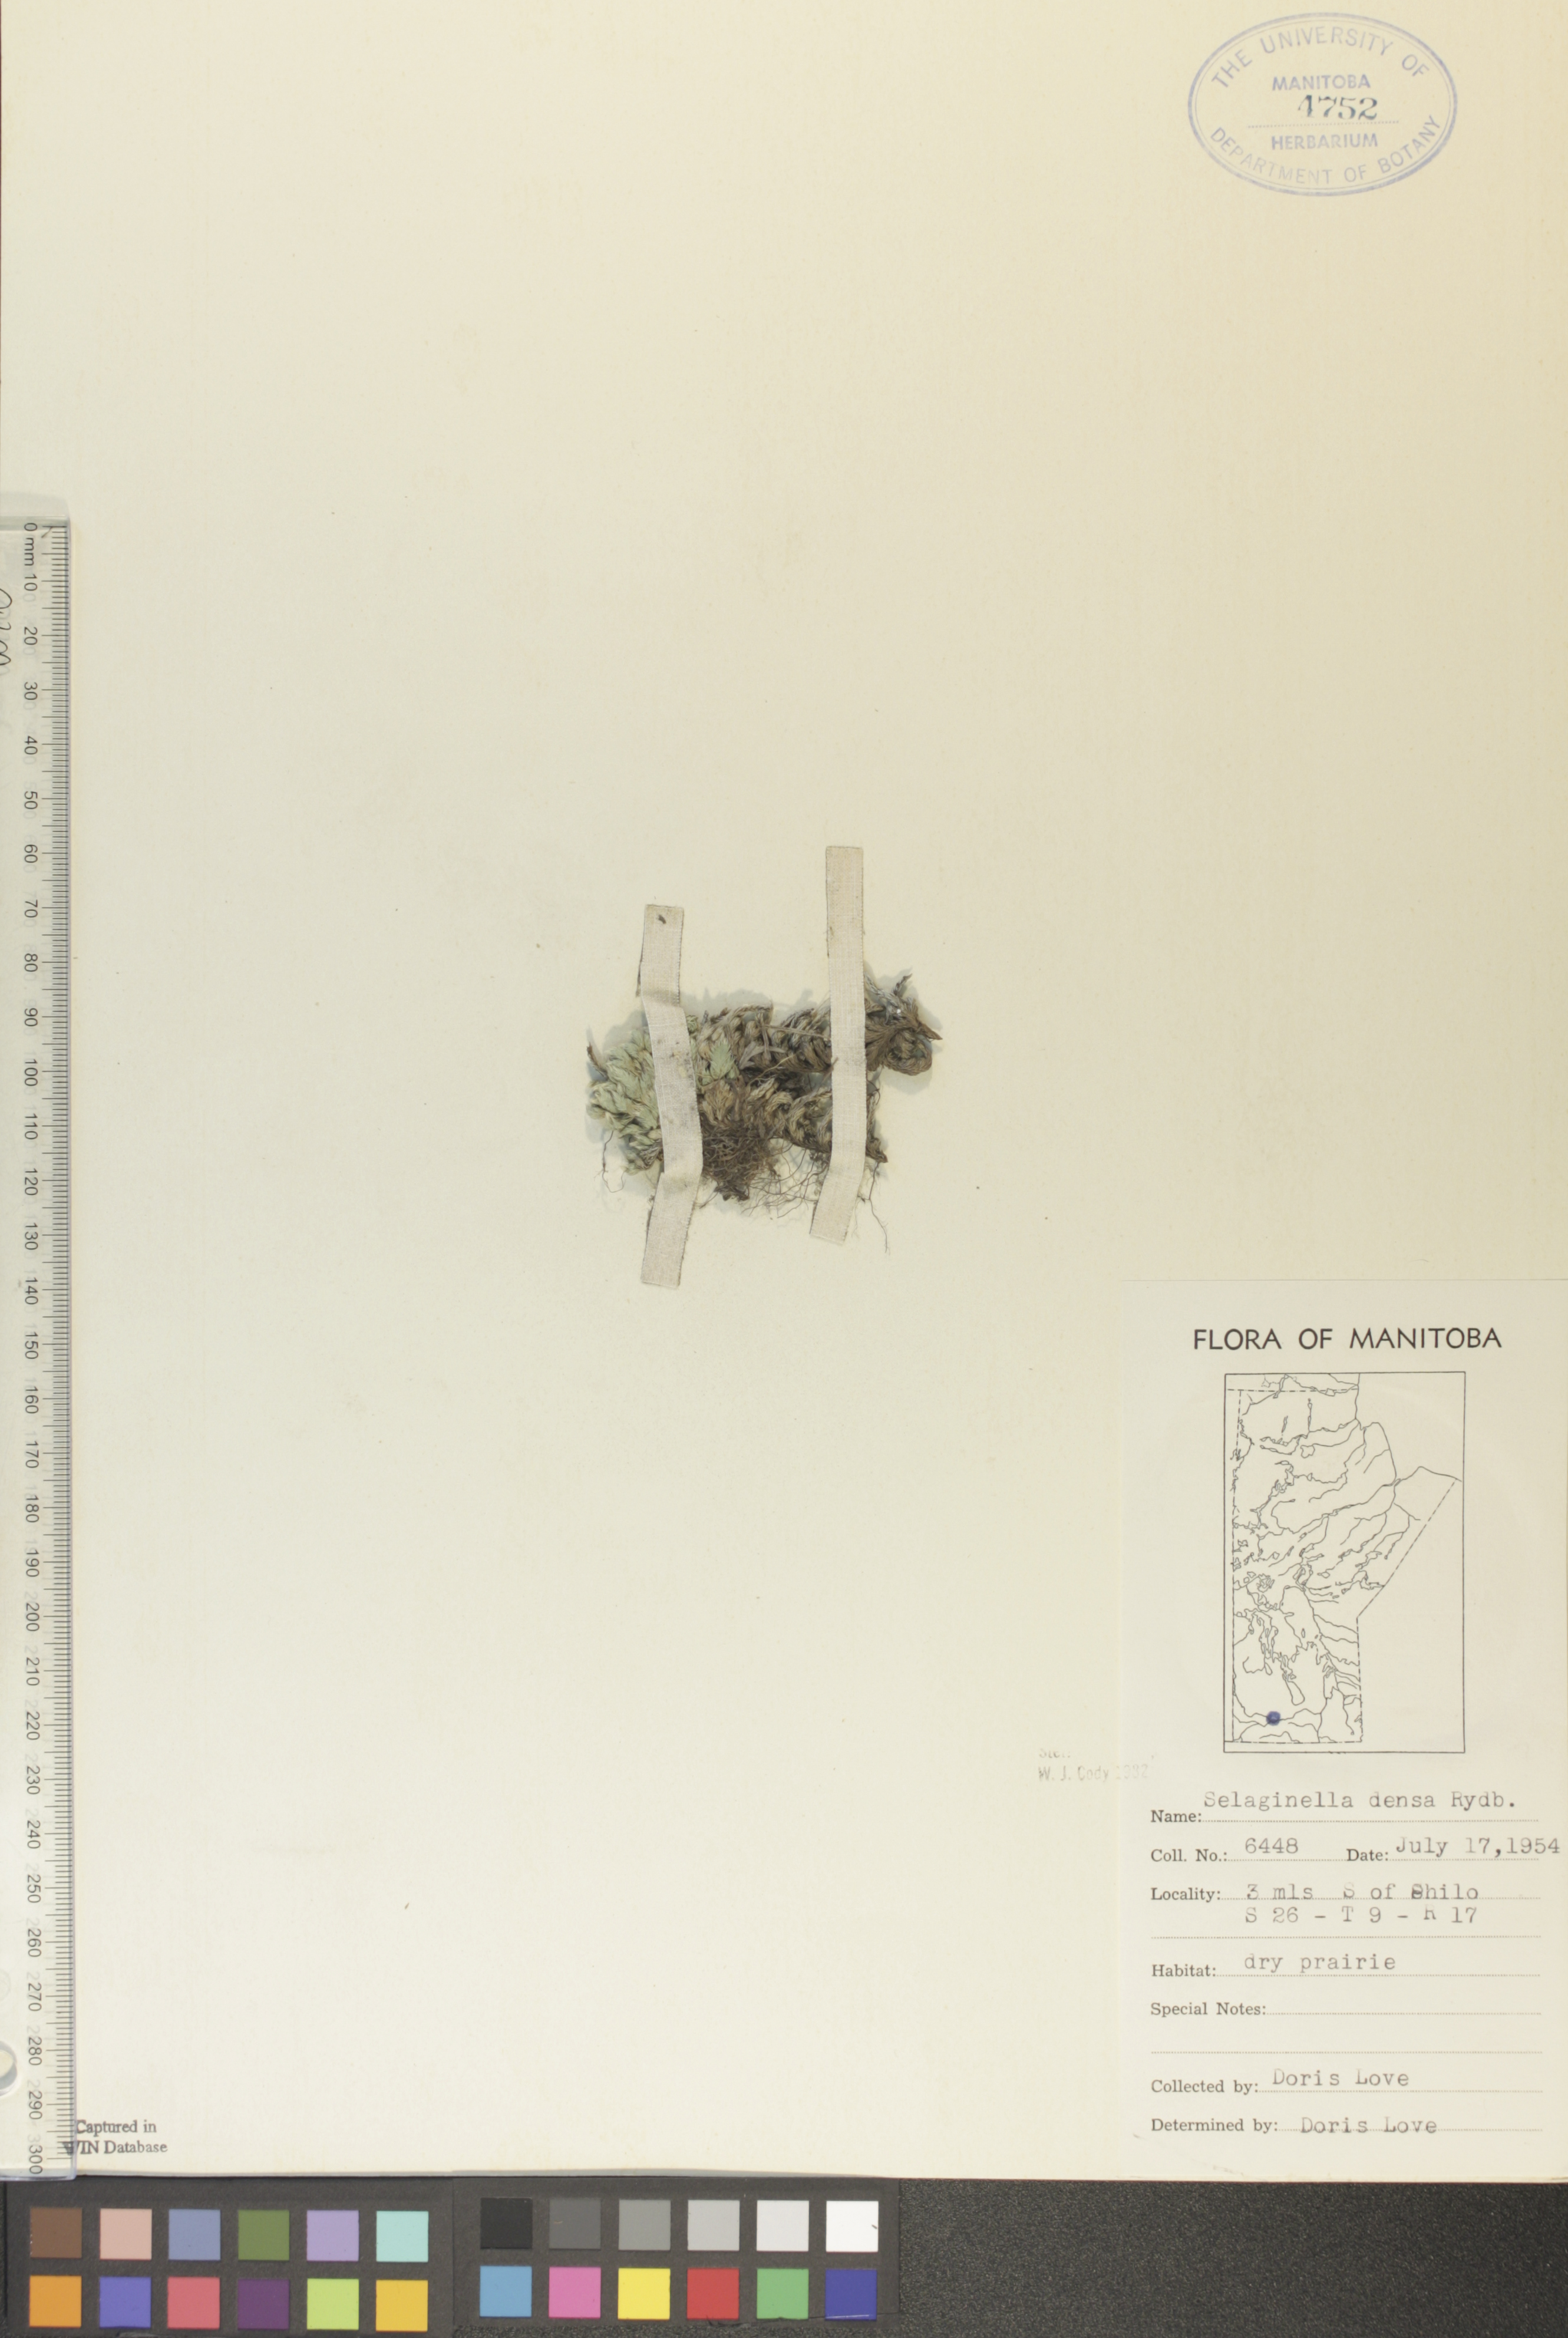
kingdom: Plantae
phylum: Tracheophyta
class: Lycopodiopsida
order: Selaginellales
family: Selaginellaceae
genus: Selaginella
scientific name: Selaginella densa
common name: Mountain spike-moss
